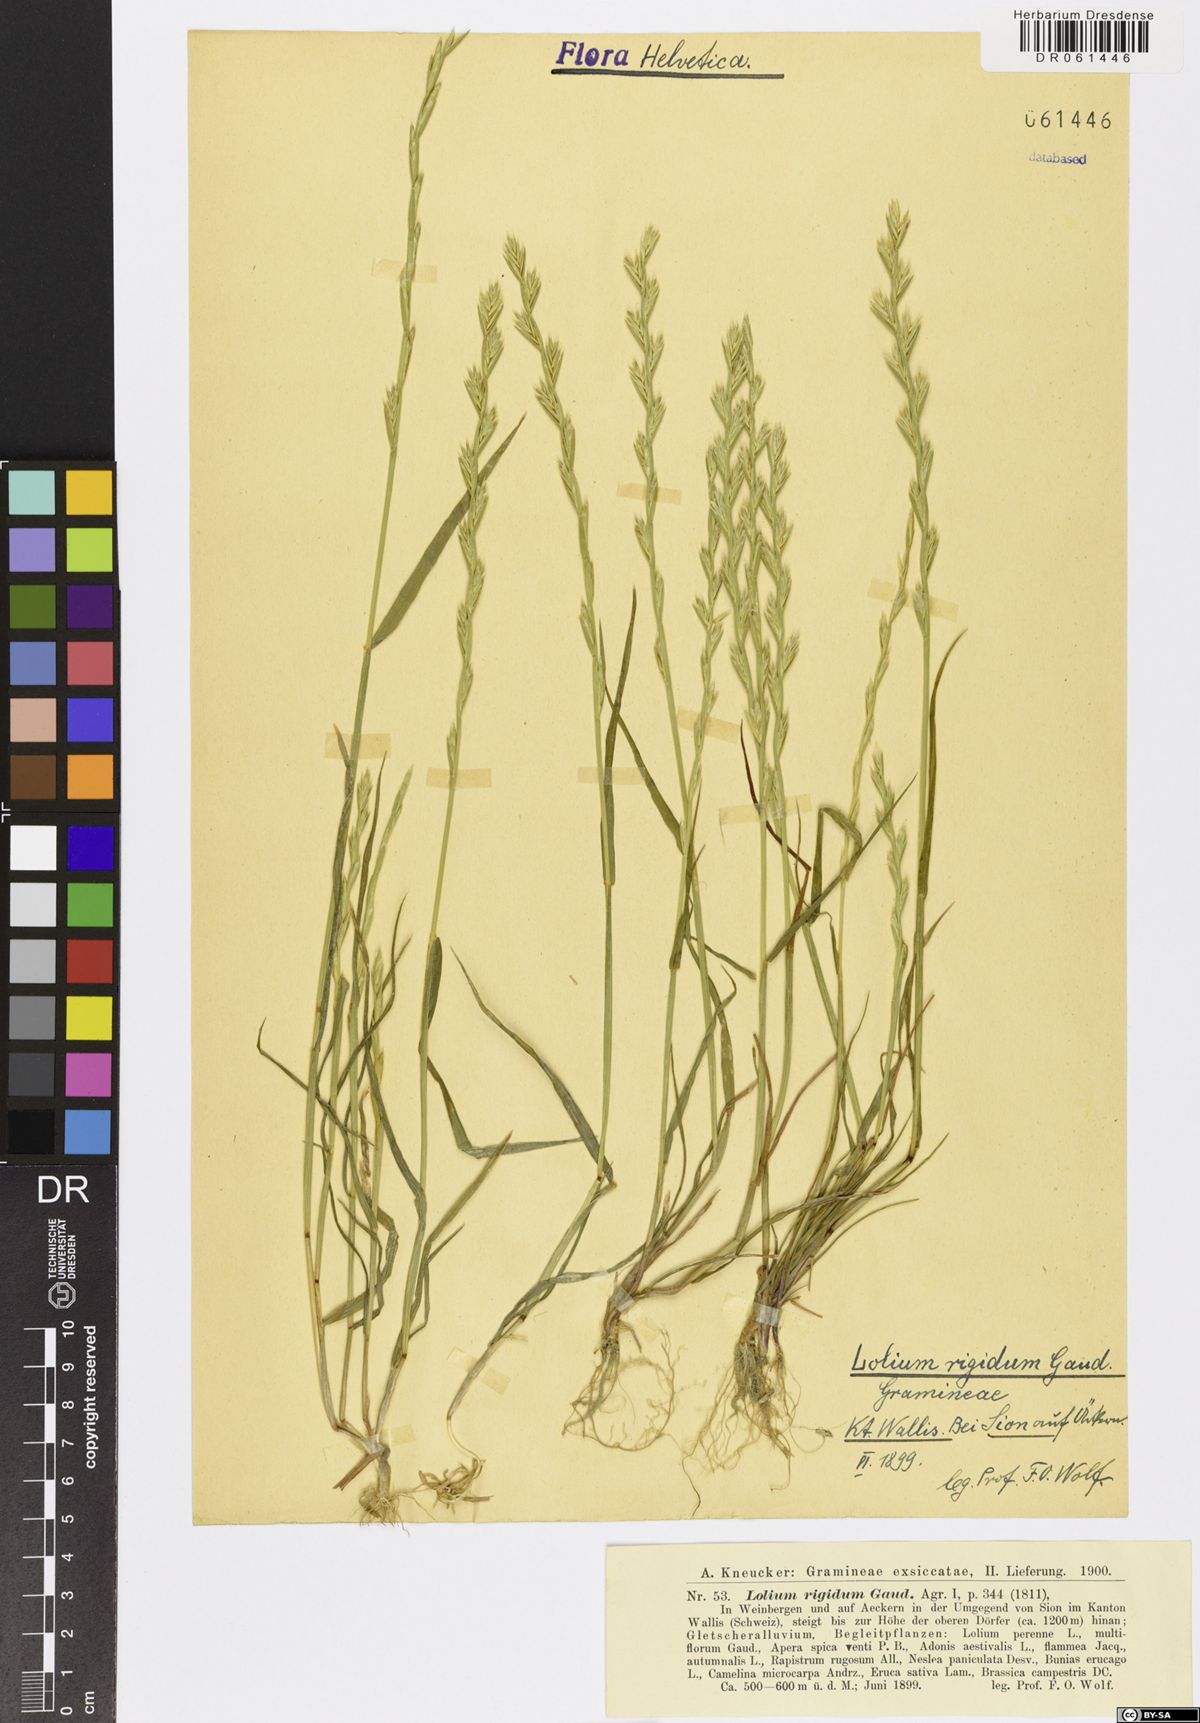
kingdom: Plantae
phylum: Tracheophyta
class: Liliopsida
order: Poales
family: Poaceae
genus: Lolium
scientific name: Lolium rigidum
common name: Wimmera ryegrass
